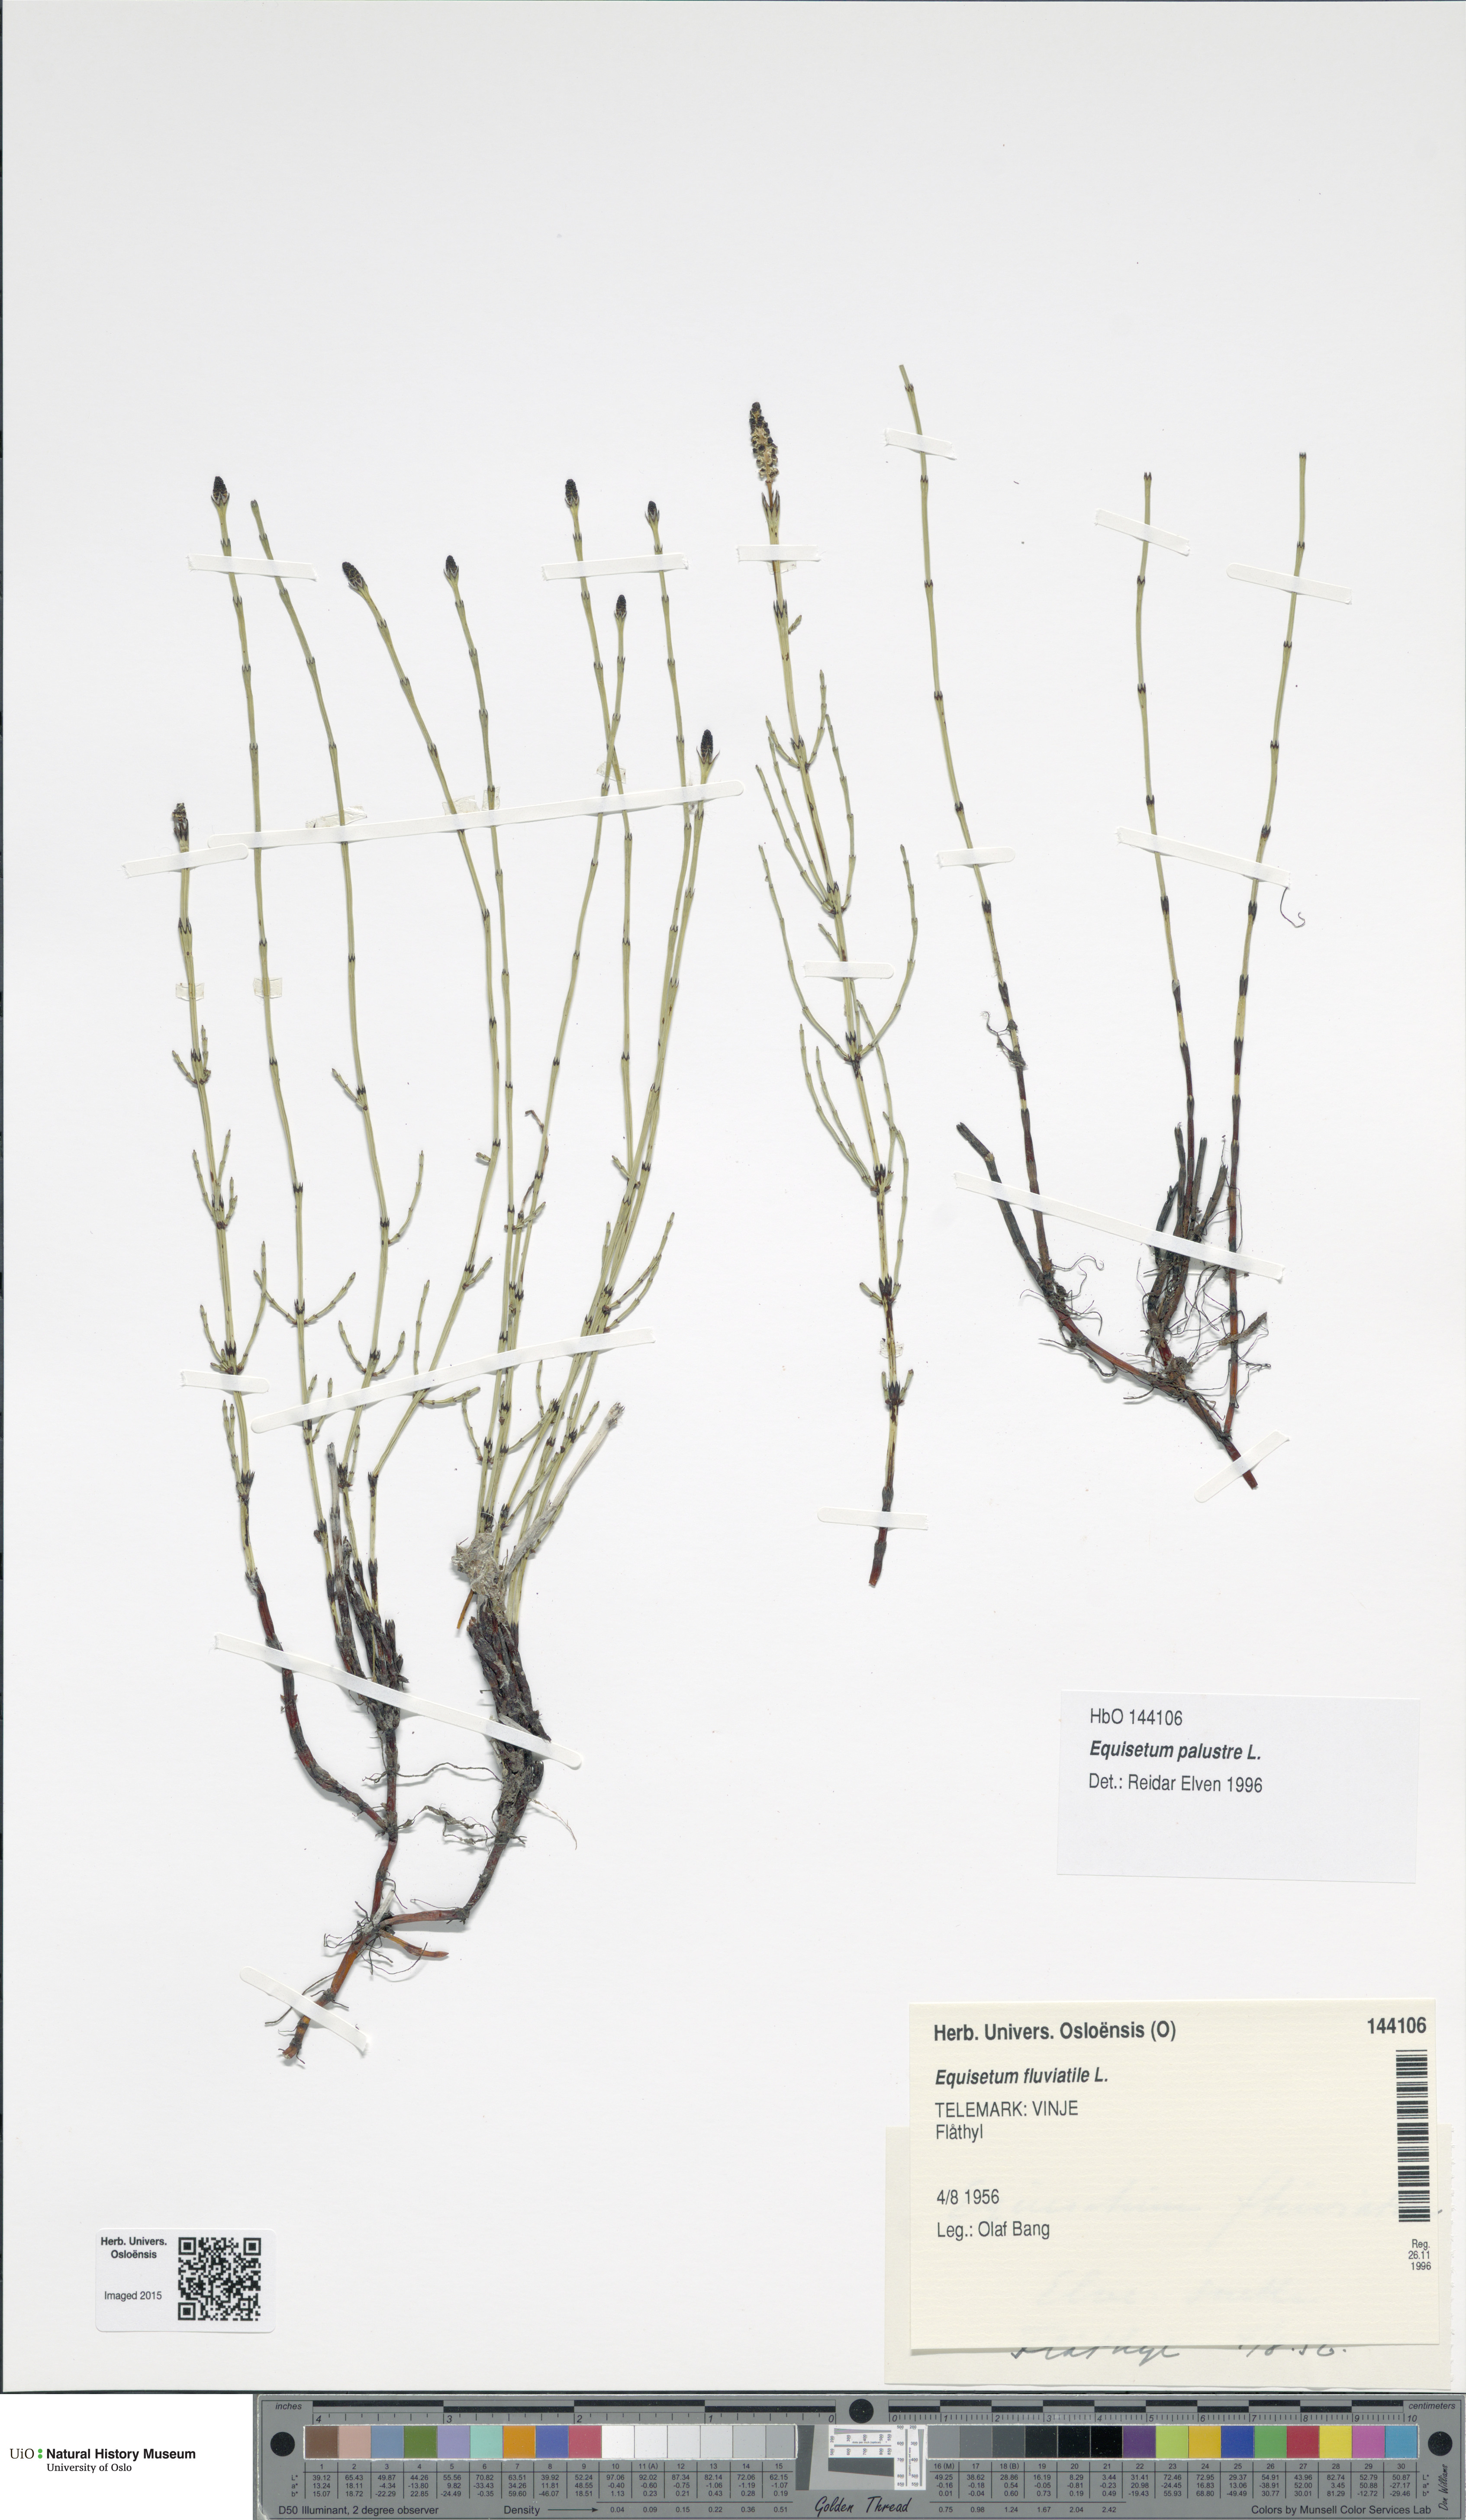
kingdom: Plantae
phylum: Tracheophyta
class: Polypodiopsida
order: Equisetales
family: Equisetaceae
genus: Equisetum
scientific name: Equisetum palustre
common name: Marsh horsetail
